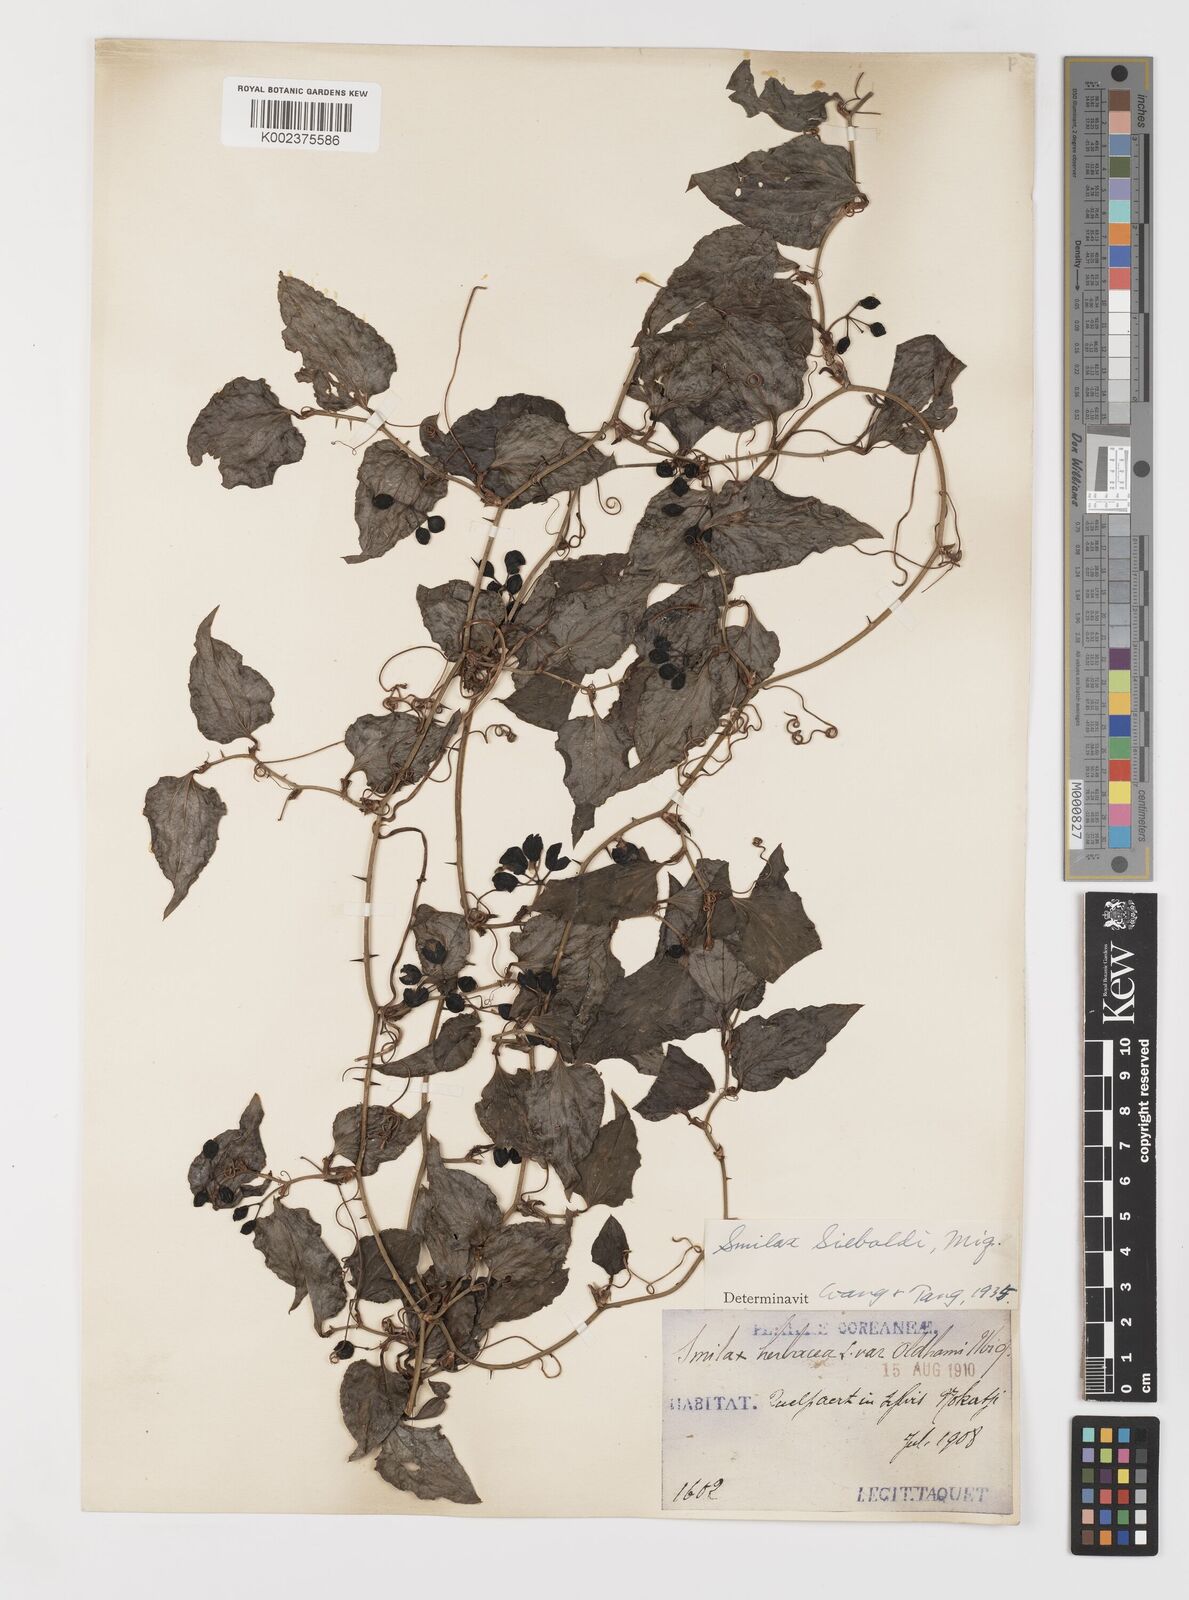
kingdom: Plantae
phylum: Tracheophyta
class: Liliopsida
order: Liliales
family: Smilacaceae
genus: Smilax
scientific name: Smilax sieboldii
